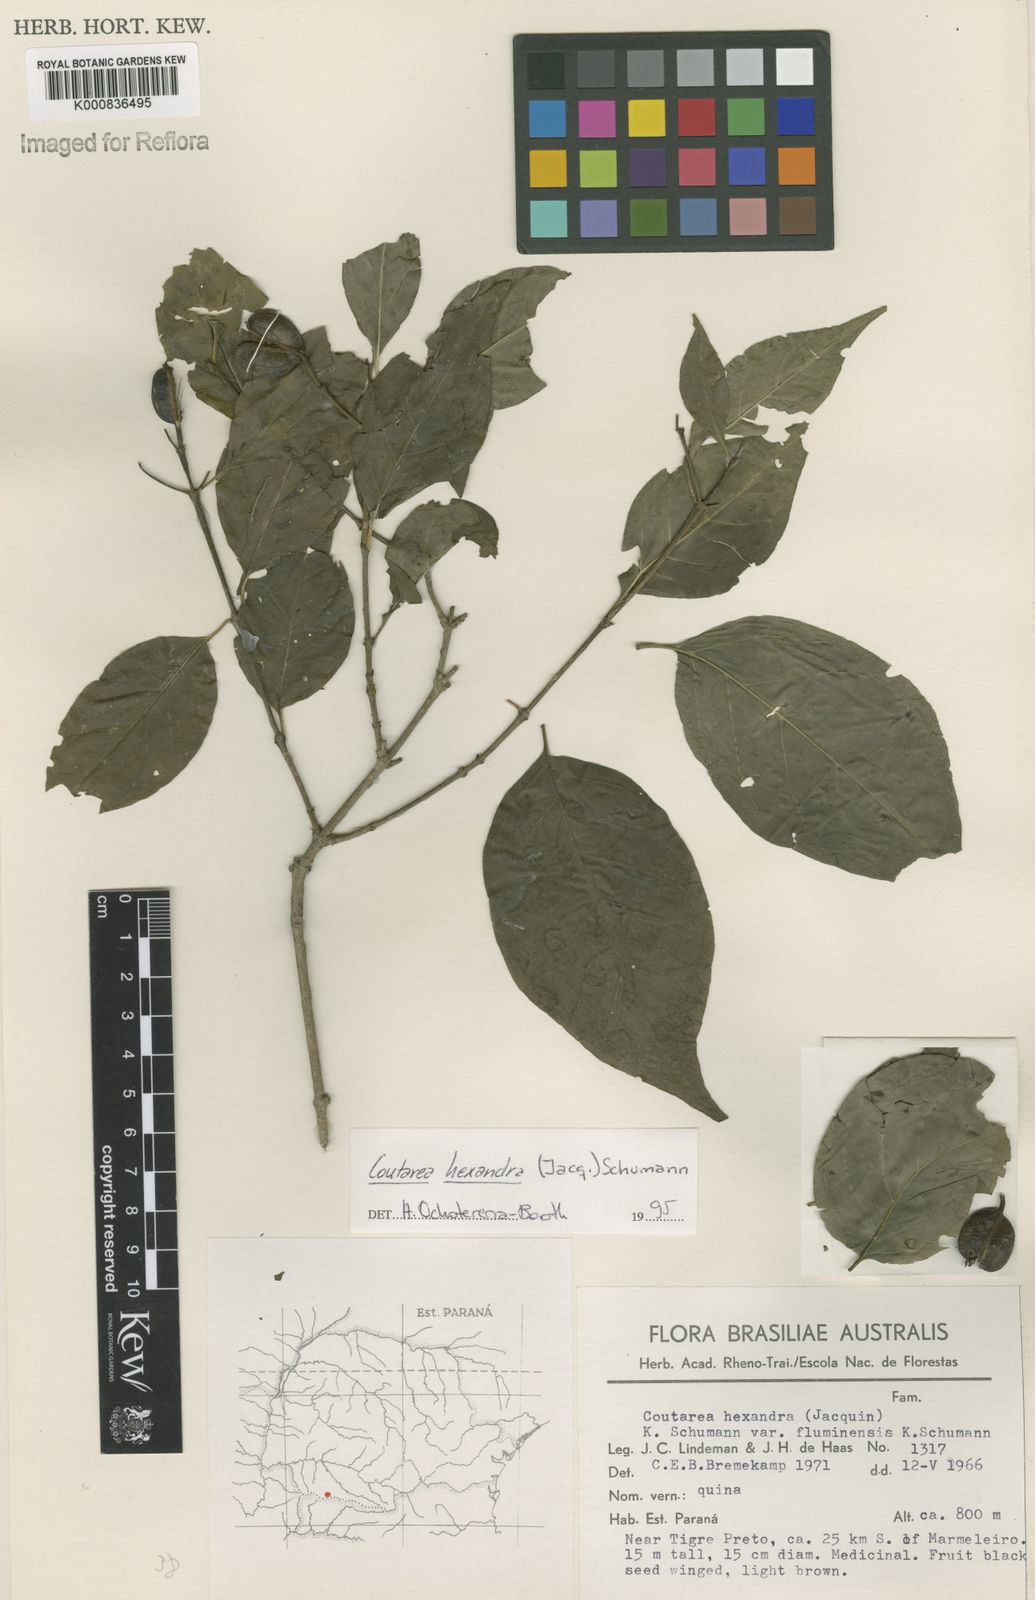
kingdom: Plantae
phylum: Tracheophyta
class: Magnoliopsida
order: Gentianales
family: Rubiaceae
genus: Coutarea
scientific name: Coutarea hexandra
